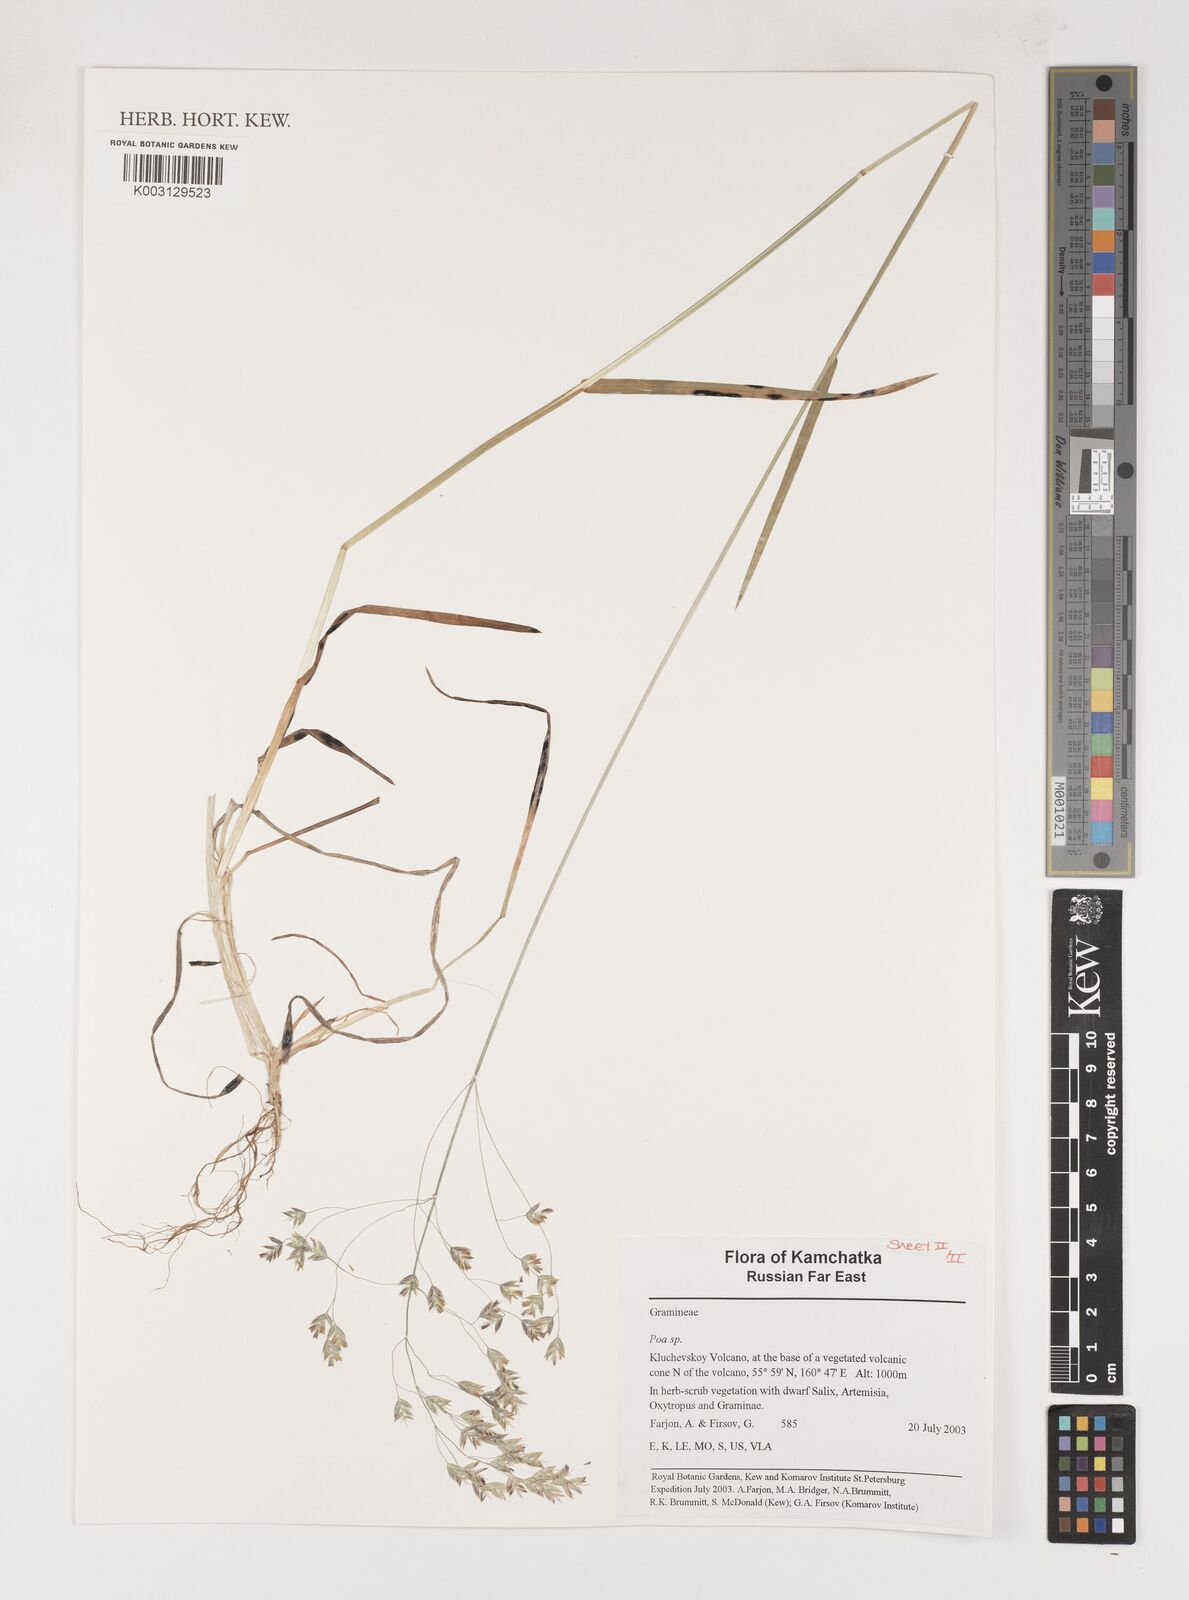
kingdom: Plantae
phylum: Tracheophyta
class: Liliopsida
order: Poales
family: Poaceae
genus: Poa
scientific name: Poa
